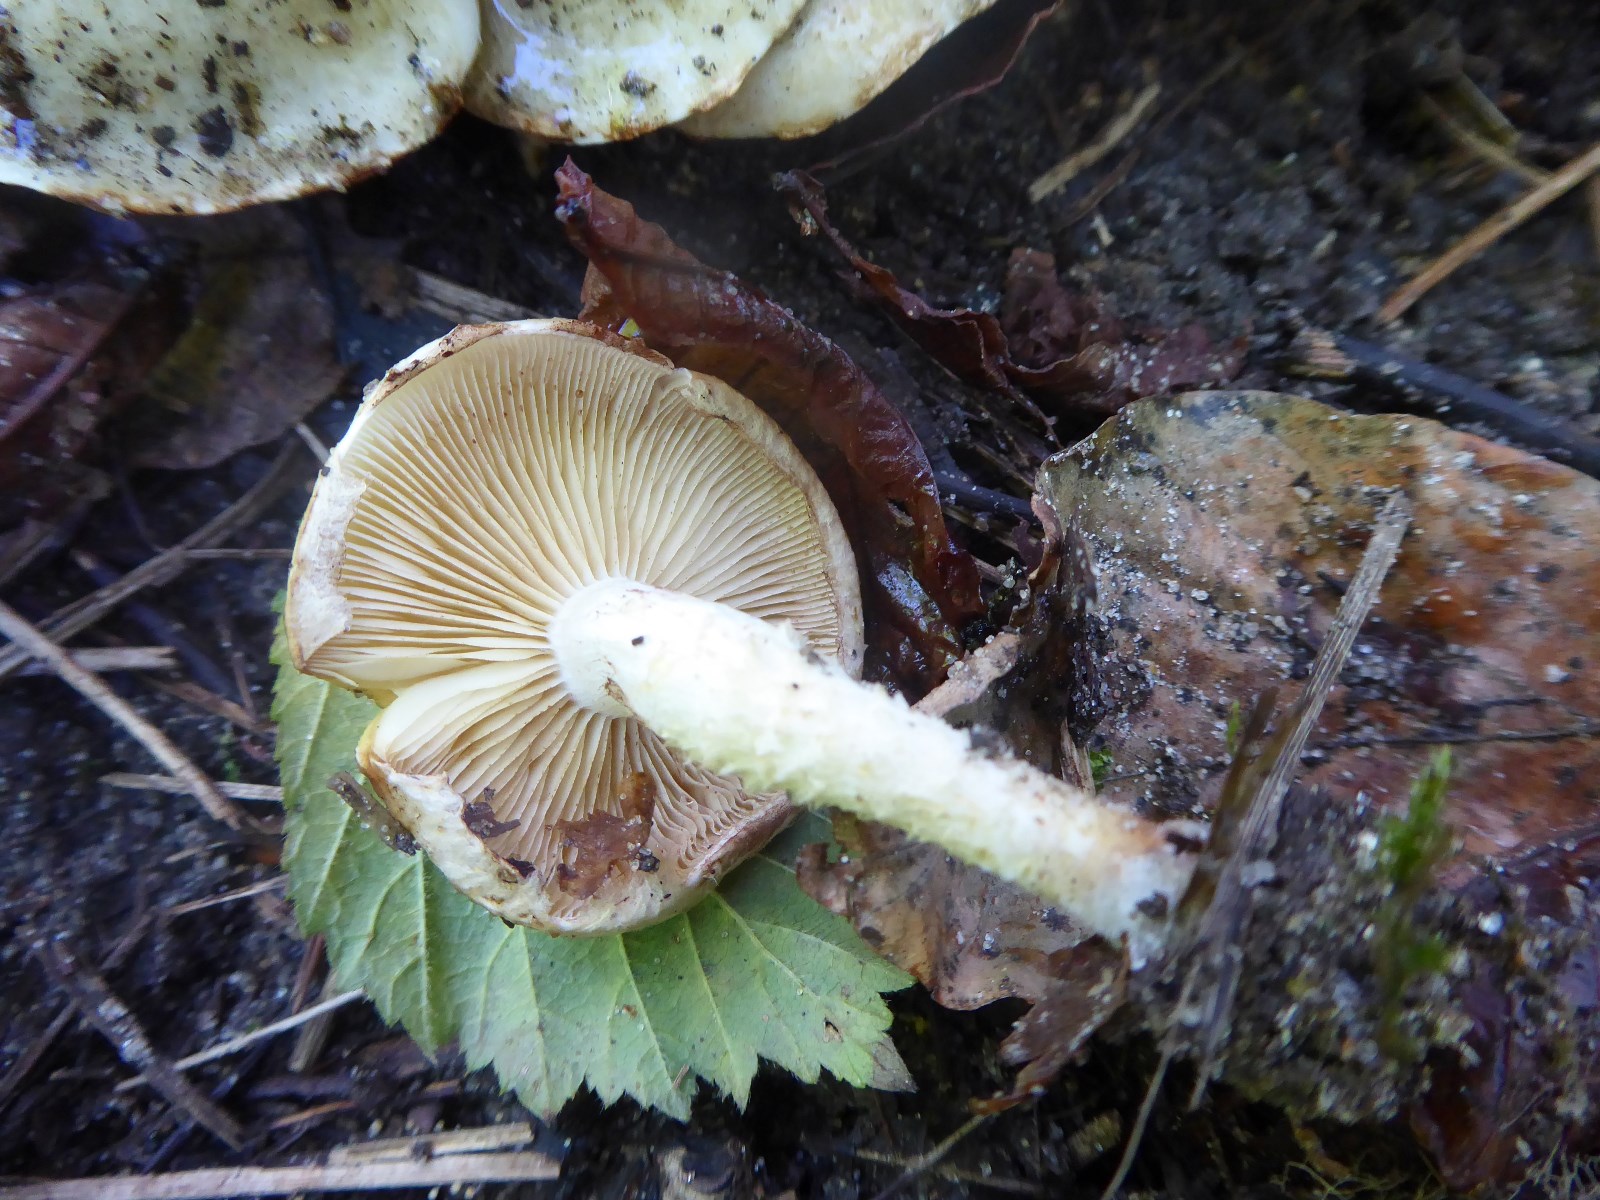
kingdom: Fungi
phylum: Basidiomycota
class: Agaricomycetes
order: Agaricales
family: Strophariaceae
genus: Pholiota
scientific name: Pholiota gummosa
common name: grøngul skælhat
